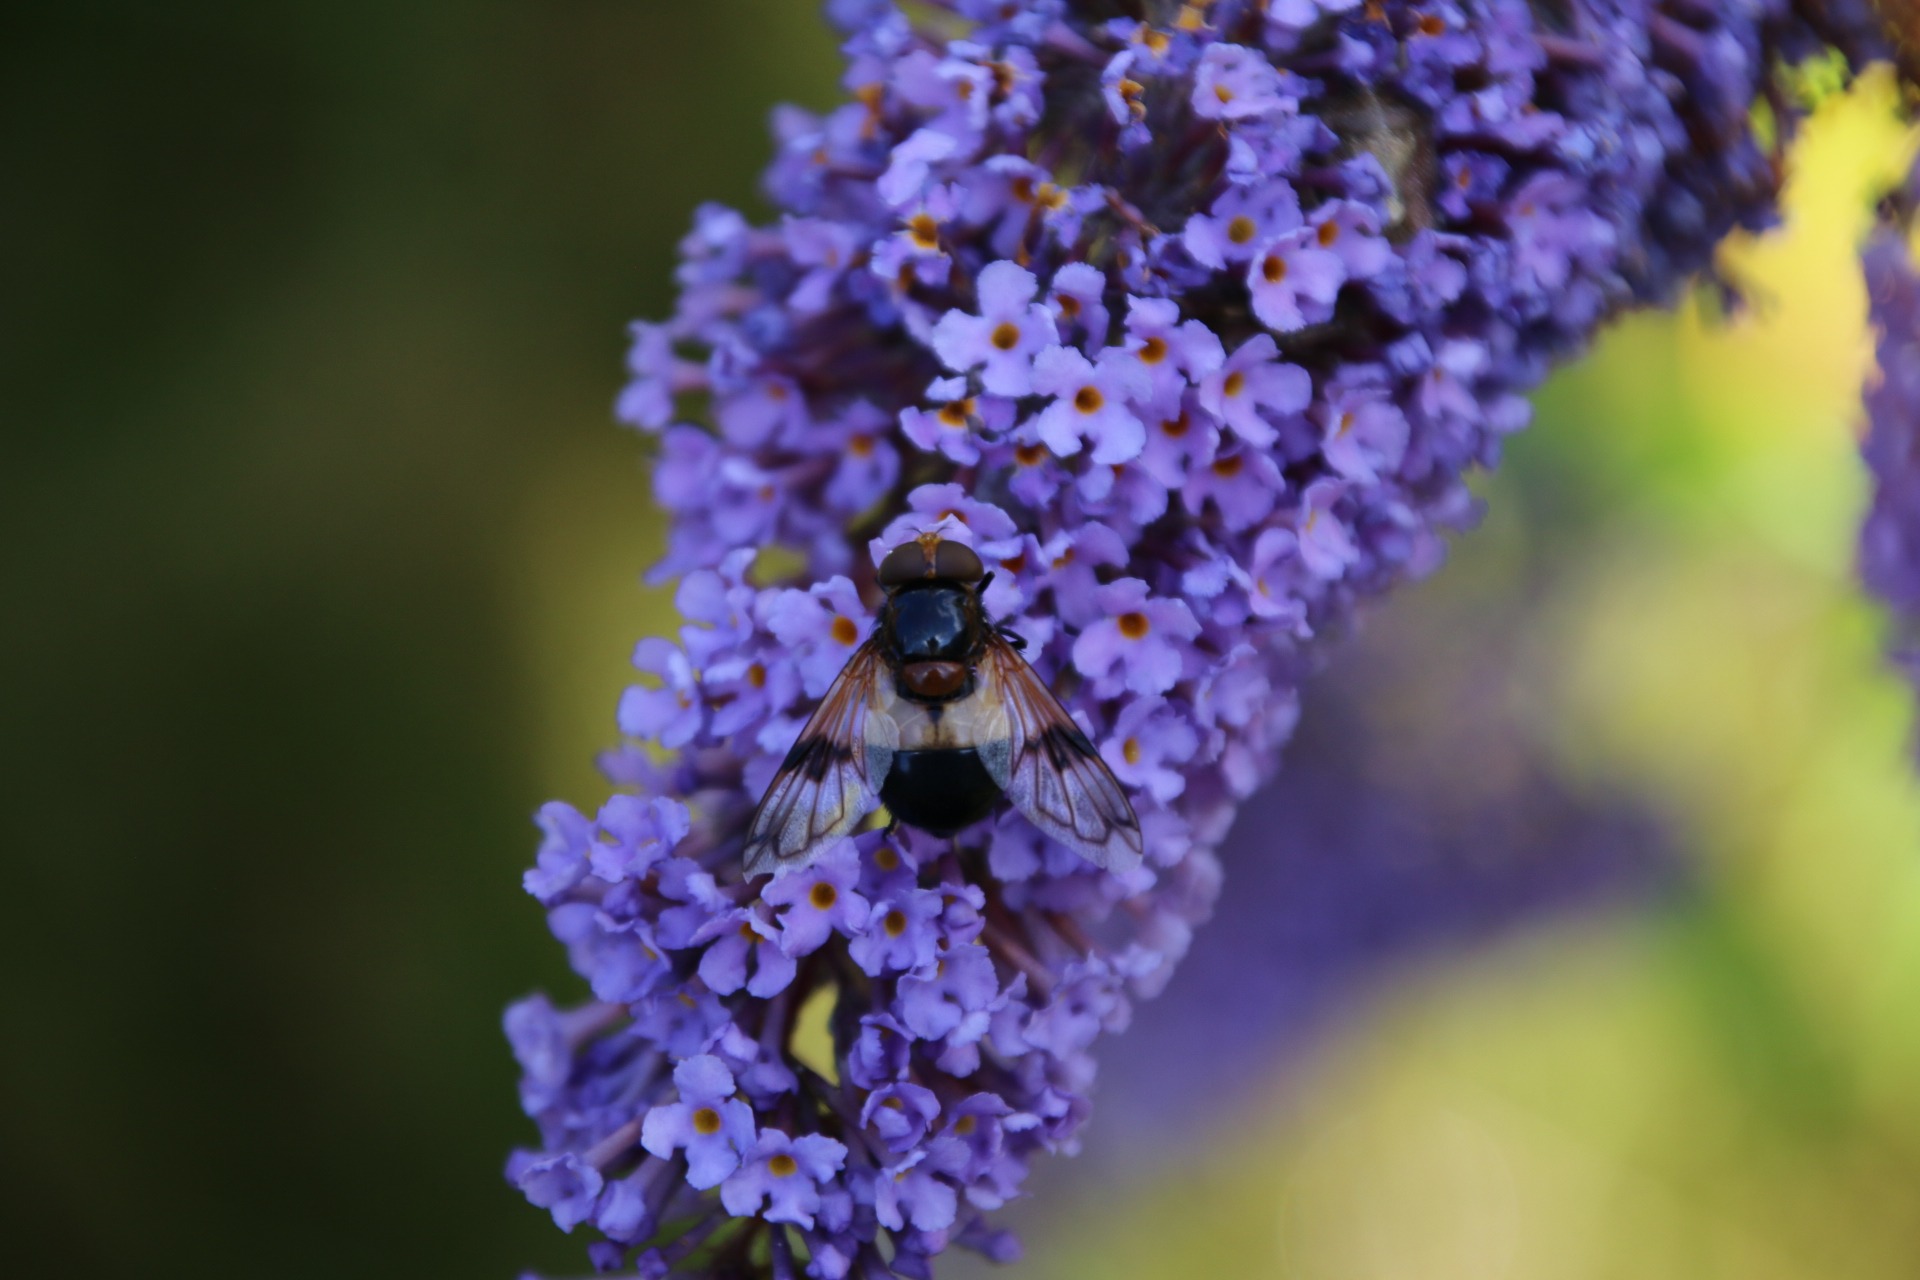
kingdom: Animalia
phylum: Arthropoda
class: Insecta
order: Diptera
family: Syrphidae
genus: Volucella
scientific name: Volucella pellucens
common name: Hvidbåndet humlesvirreflue
